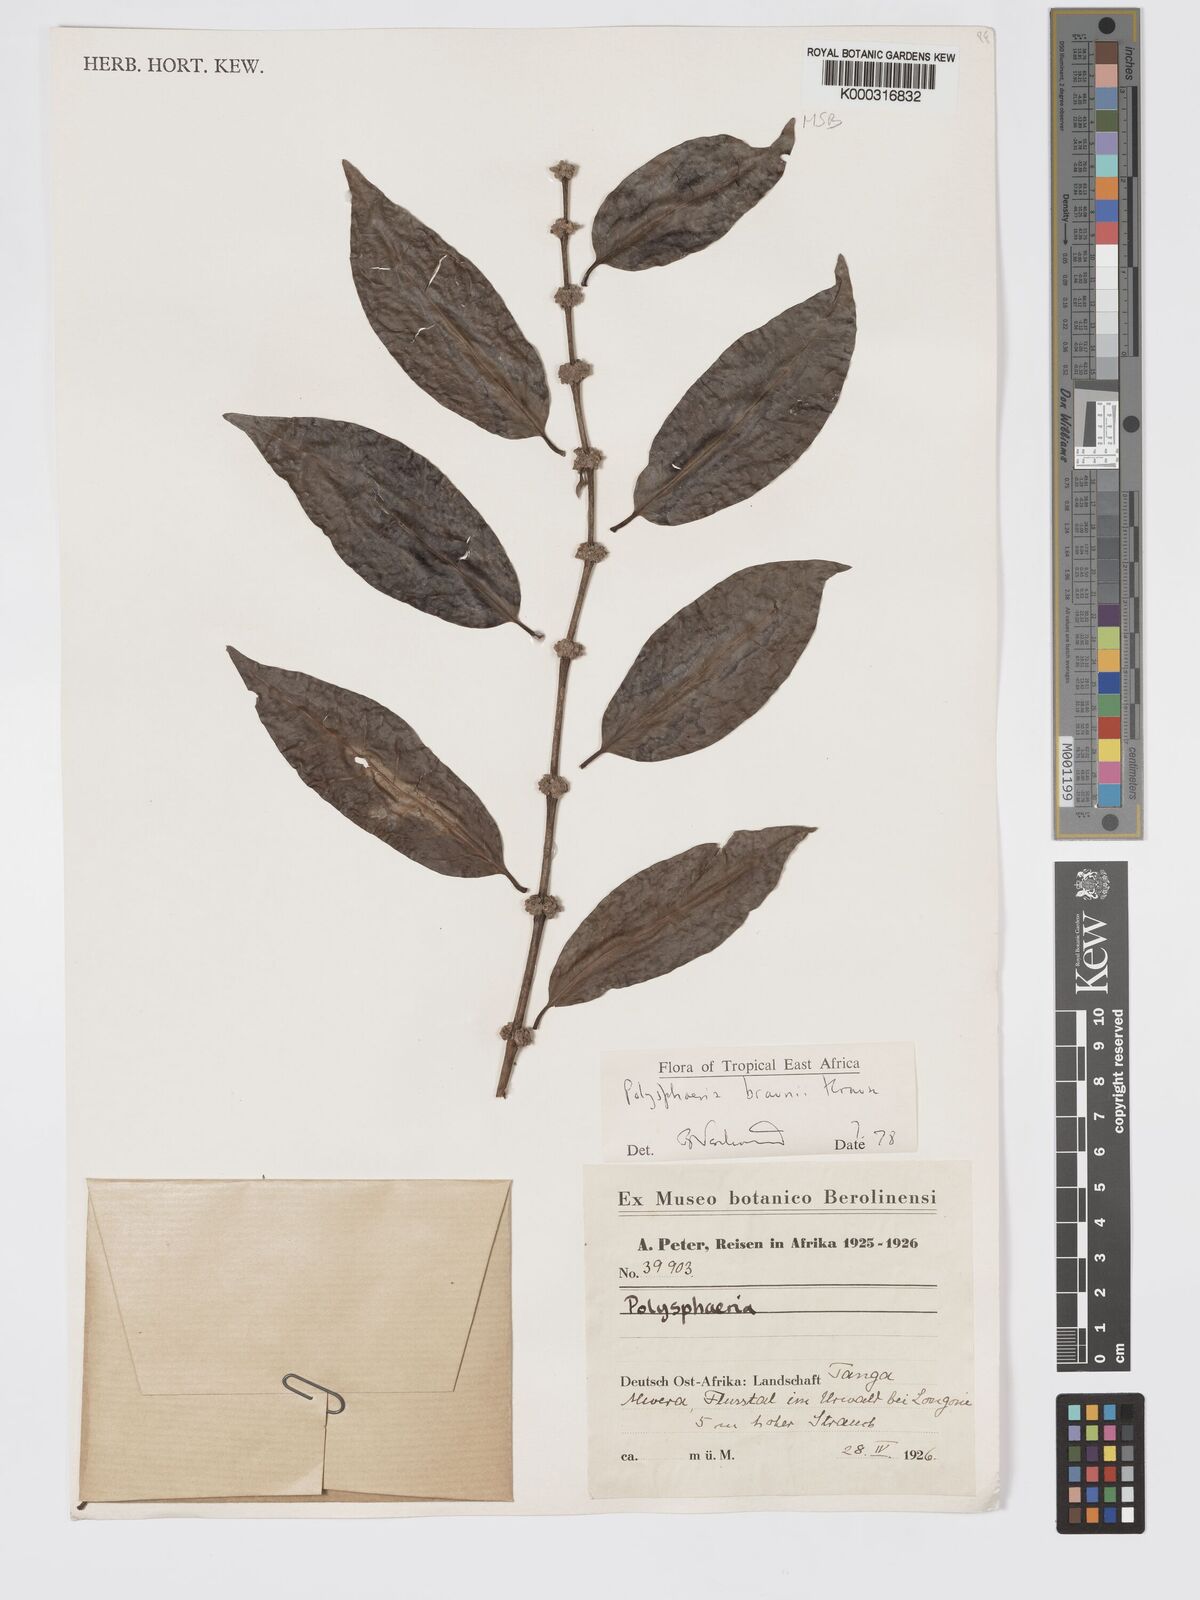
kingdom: Plantae
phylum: Tracheophyta
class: Magnoliopsida
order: Gentianales
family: Rubiaceae
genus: Polysphaeria
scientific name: Polysphaeria braunii
